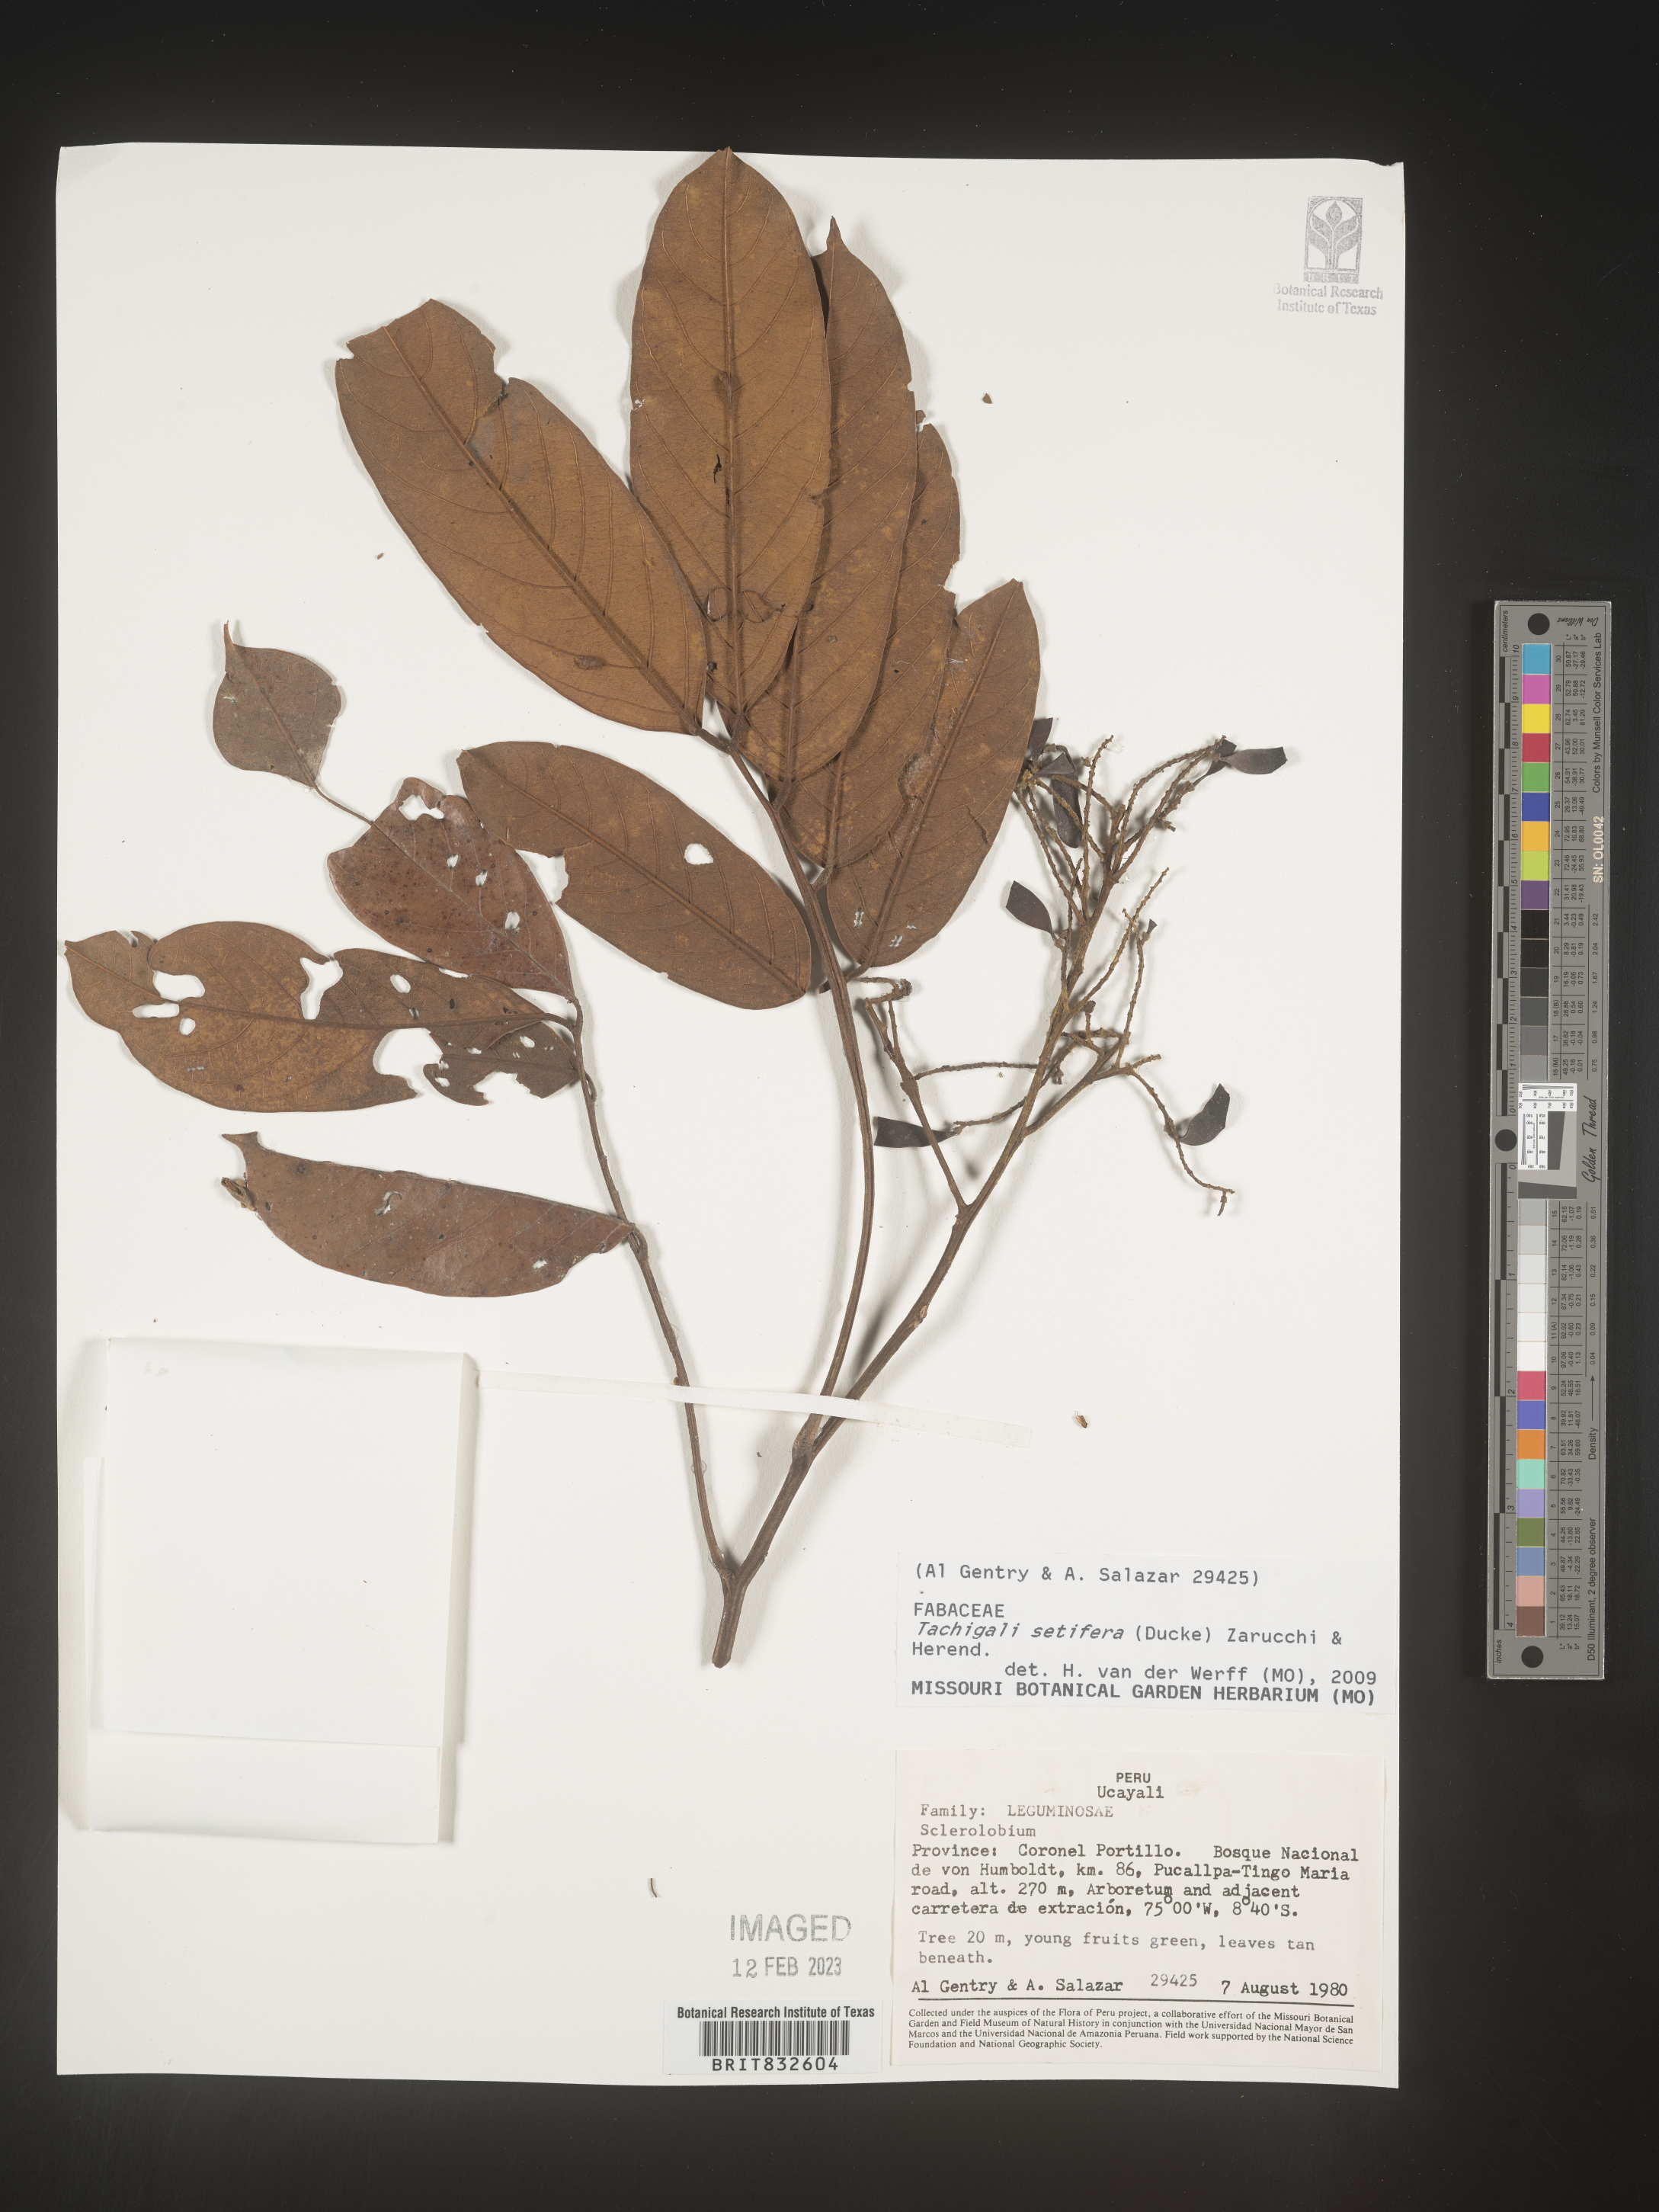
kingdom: Plantae
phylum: Tracheophyta
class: Magnoliopsida
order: Fabales
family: Fabaceae
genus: Tachigali
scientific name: Tachigali
